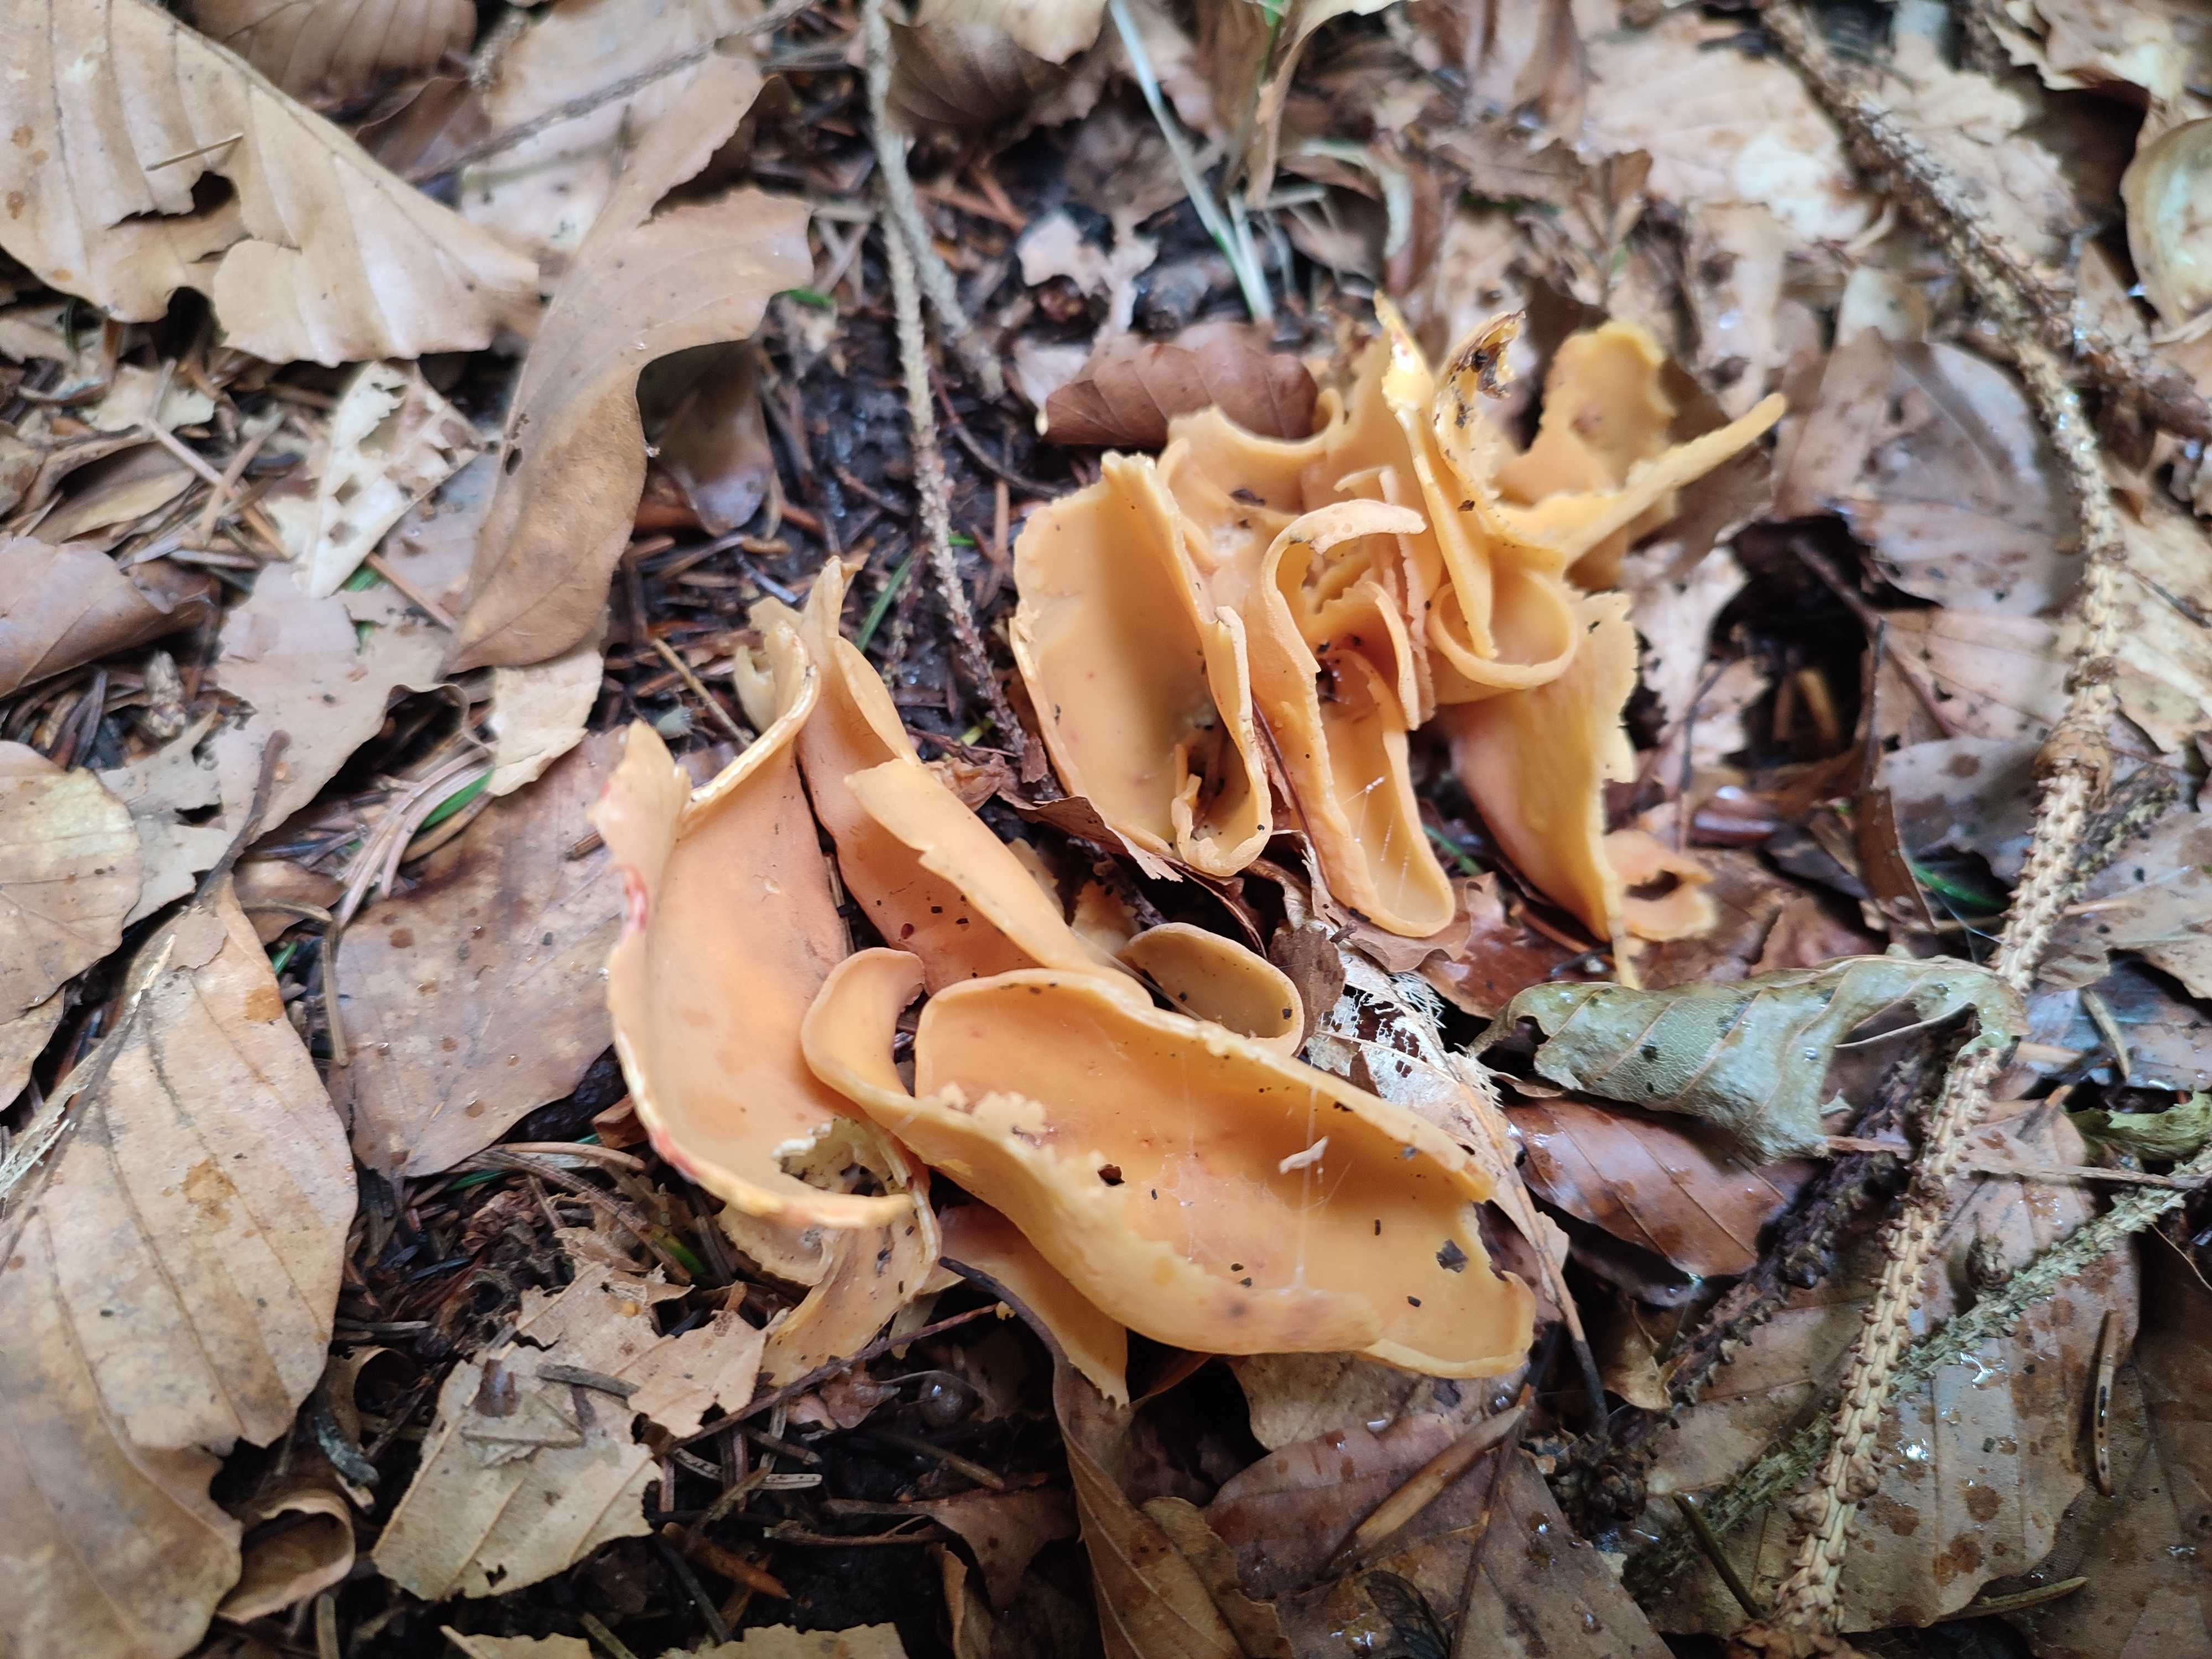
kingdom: Fungi
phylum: Ascomycota
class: Pezizomycetes
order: Pezizales
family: Otideaceae
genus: Otidea
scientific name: Otidea onotica
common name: æsel-ørebæger
